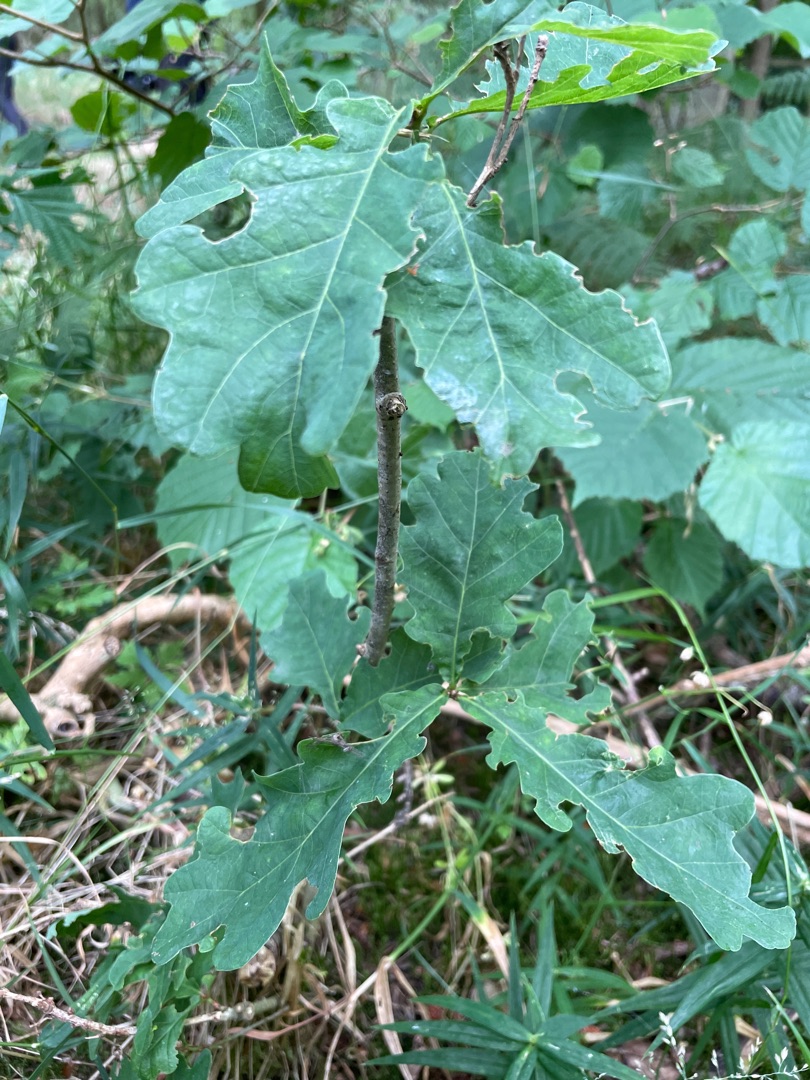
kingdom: Plantae
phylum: Tracheophyta
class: Magnoliopsida
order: Fagales
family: Fagaceae
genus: Quercus
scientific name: Quercus robur
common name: Stilk-eg/almindelig eg
